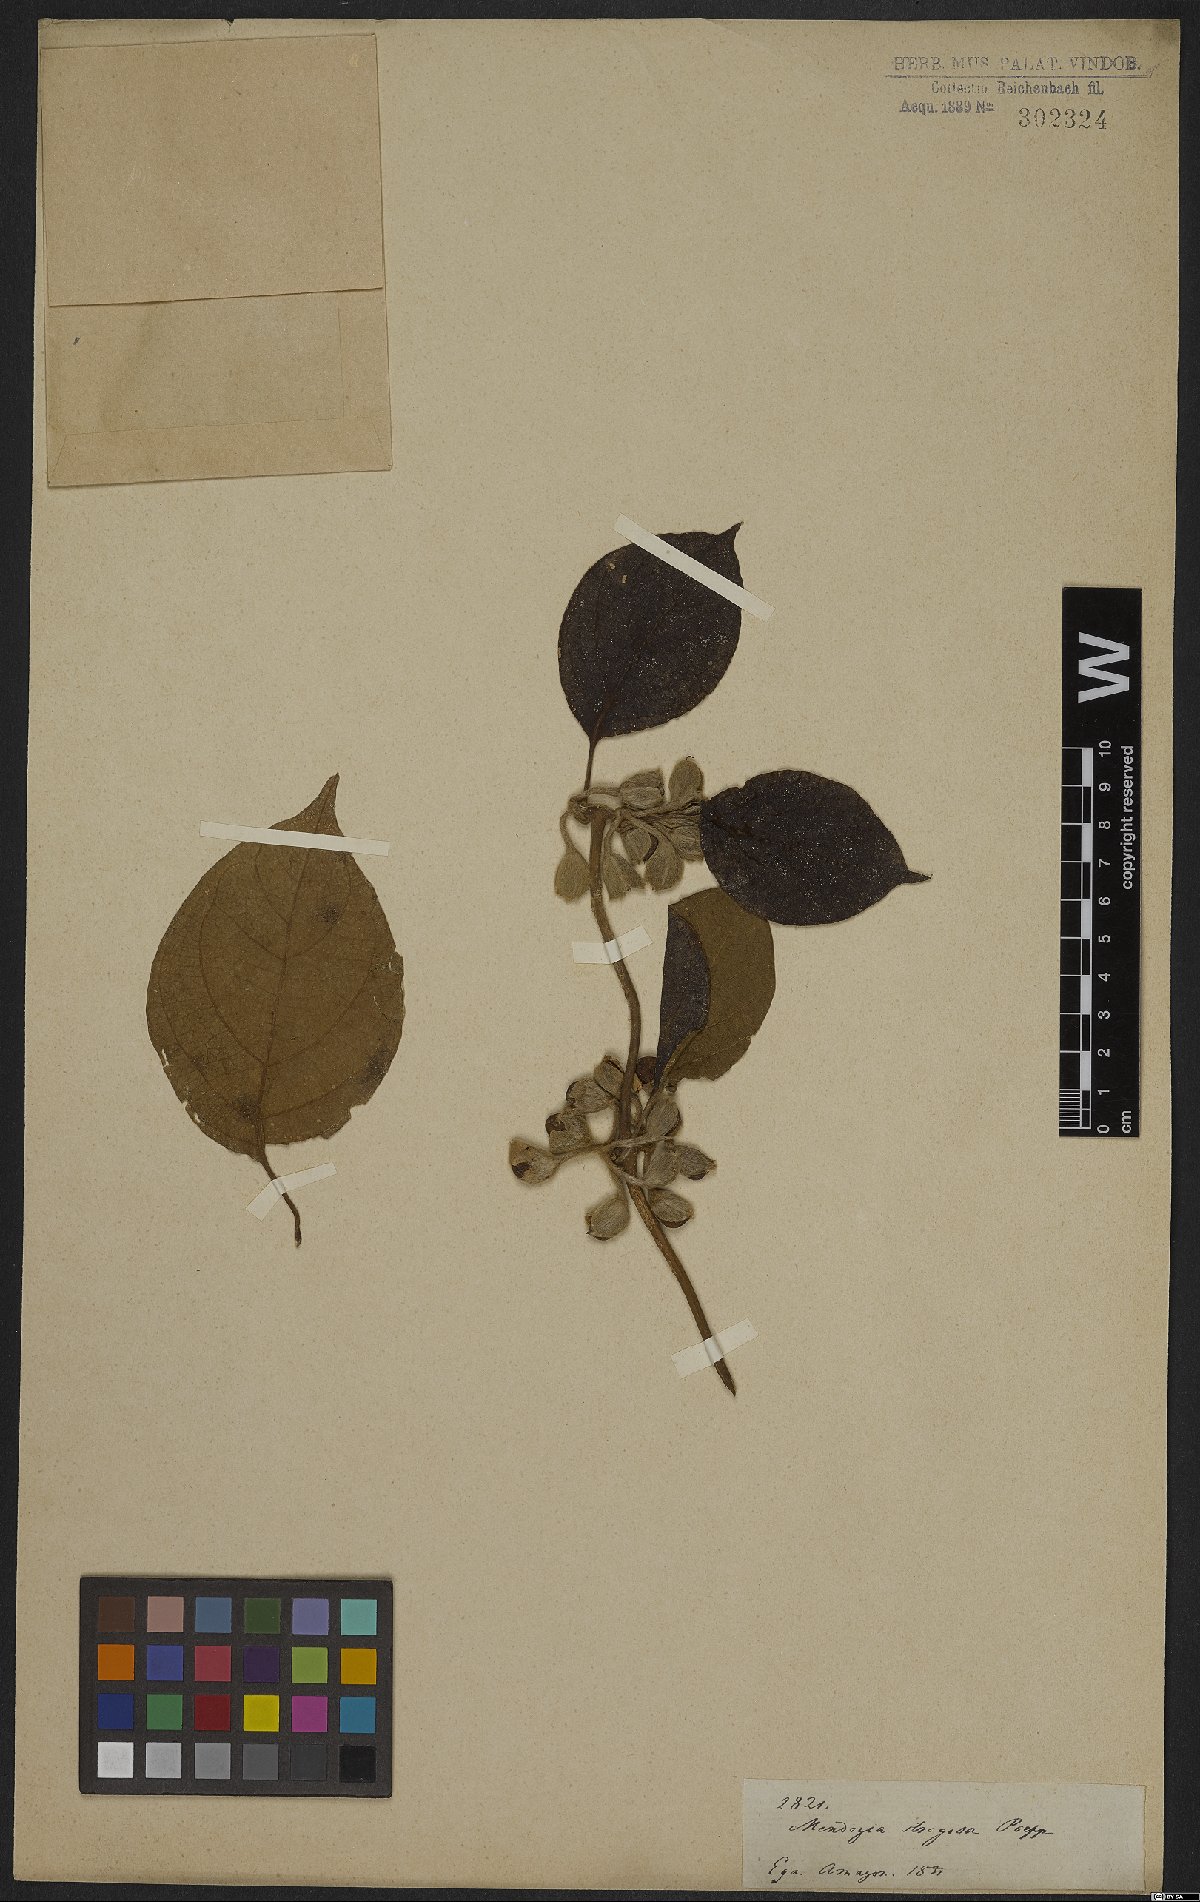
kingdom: Plantae
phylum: Tracheophyta
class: Magnoliopsida
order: Lamiales
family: Acanthaceae
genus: Mendoncia
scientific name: Mendoncia multiflora
